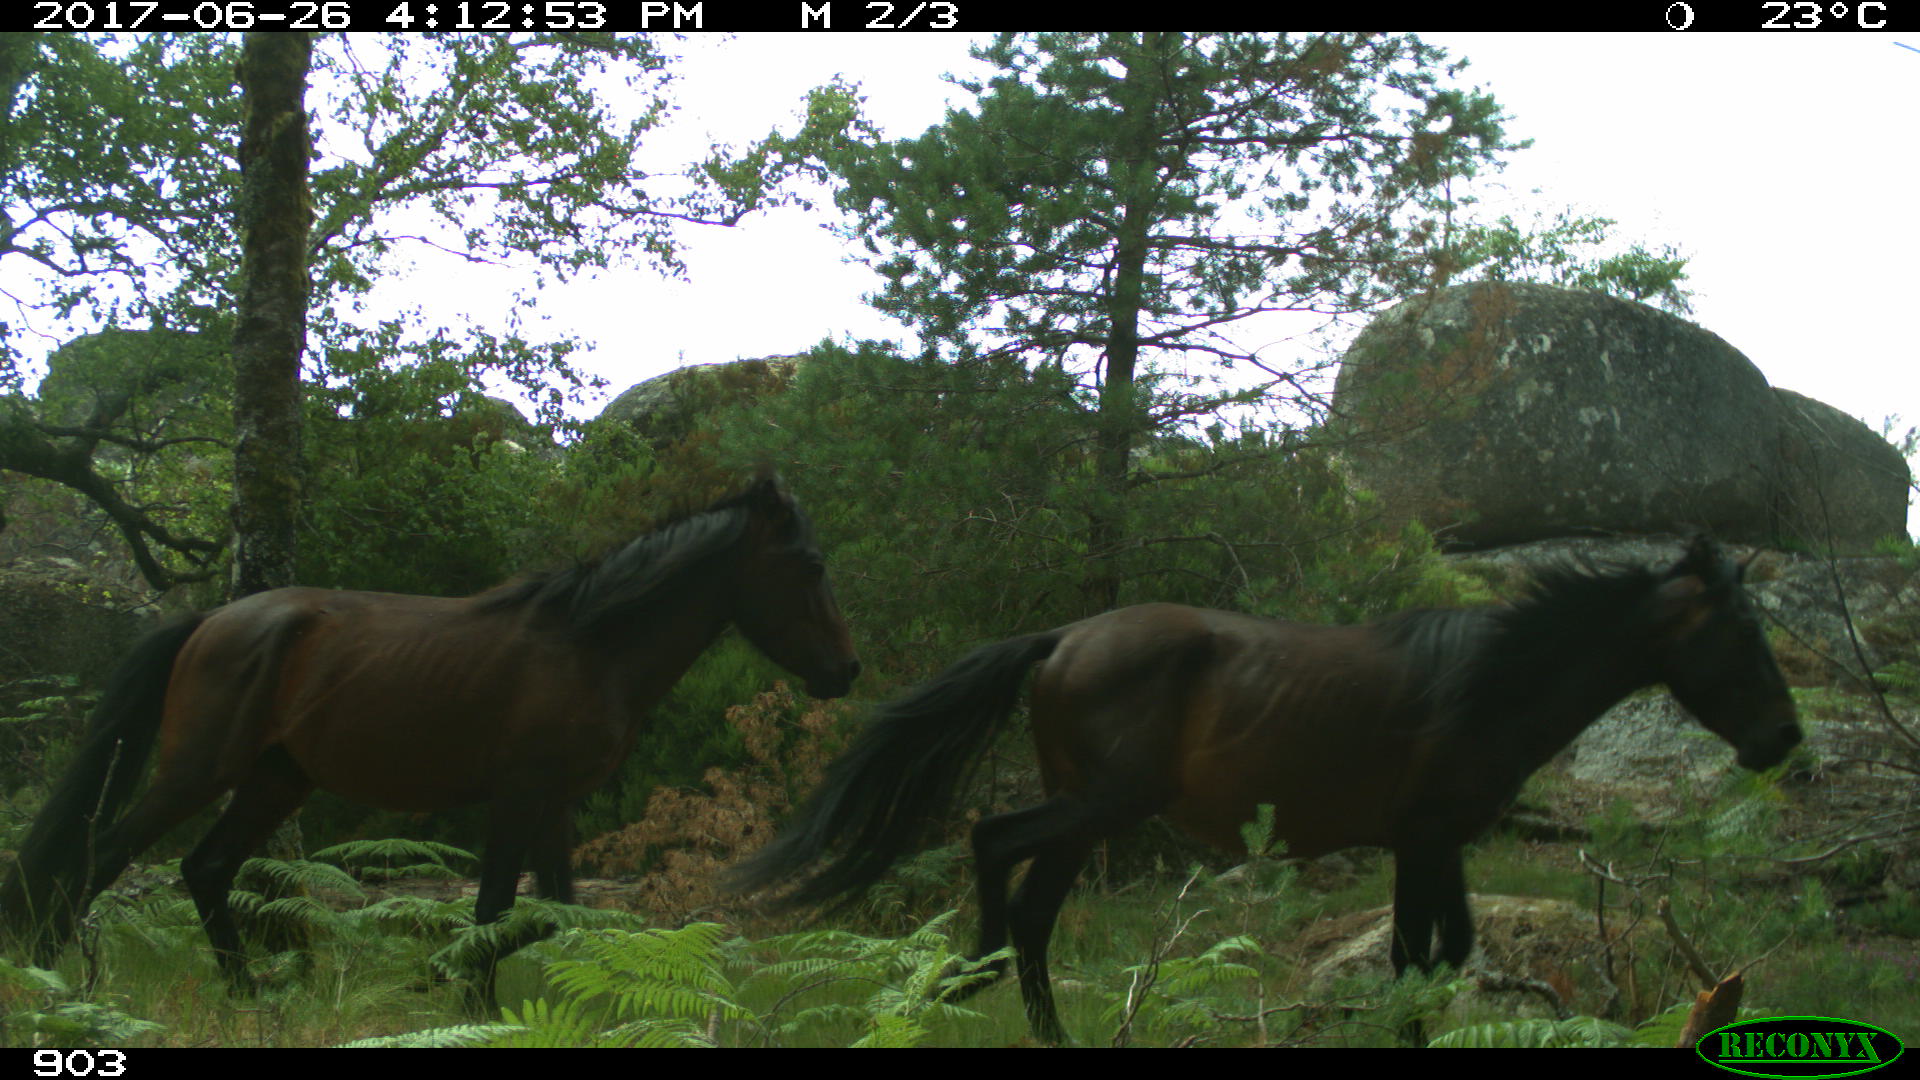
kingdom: Animalia
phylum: Chordata
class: Mammalia
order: Perissodactyla
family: Equidae
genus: Equus
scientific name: Equus caballus
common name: Horse
